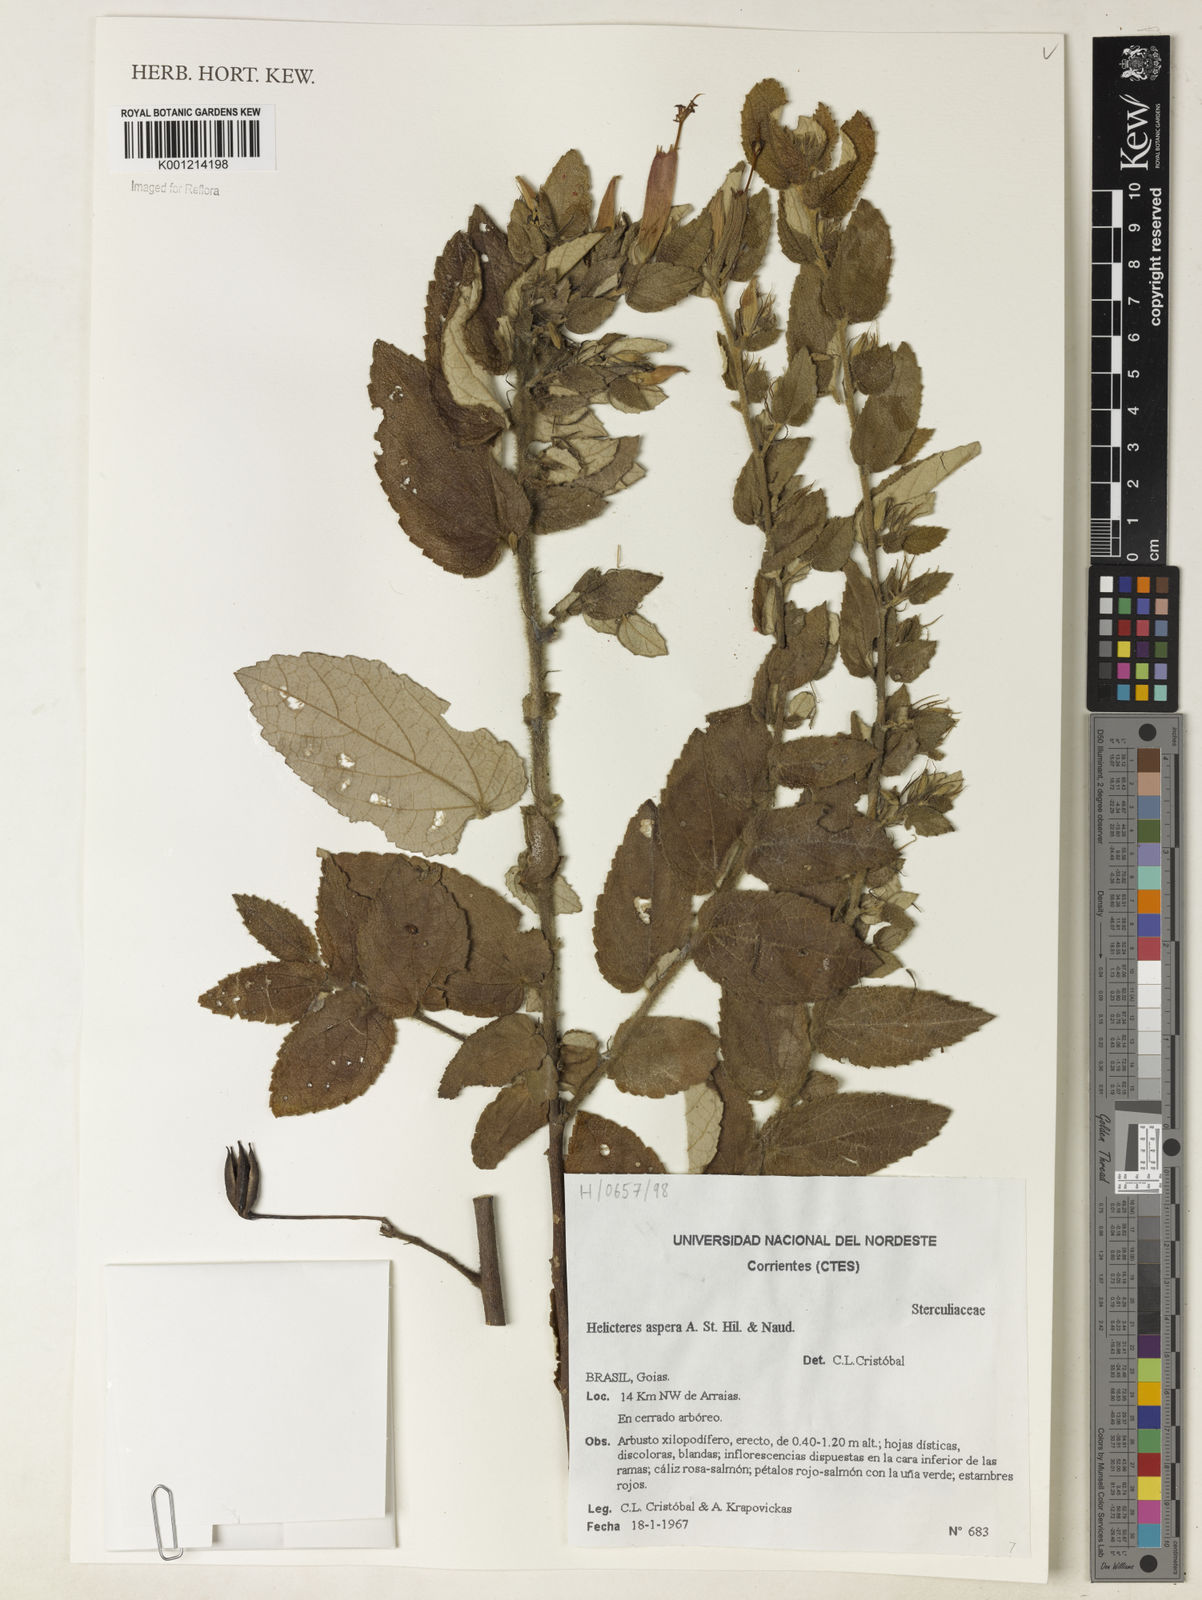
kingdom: Plantae
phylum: Tracheophyta
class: Magnoliopsida
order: Malvales
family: Malvaceae
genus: Helicteres
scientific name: Helicteres aspera
